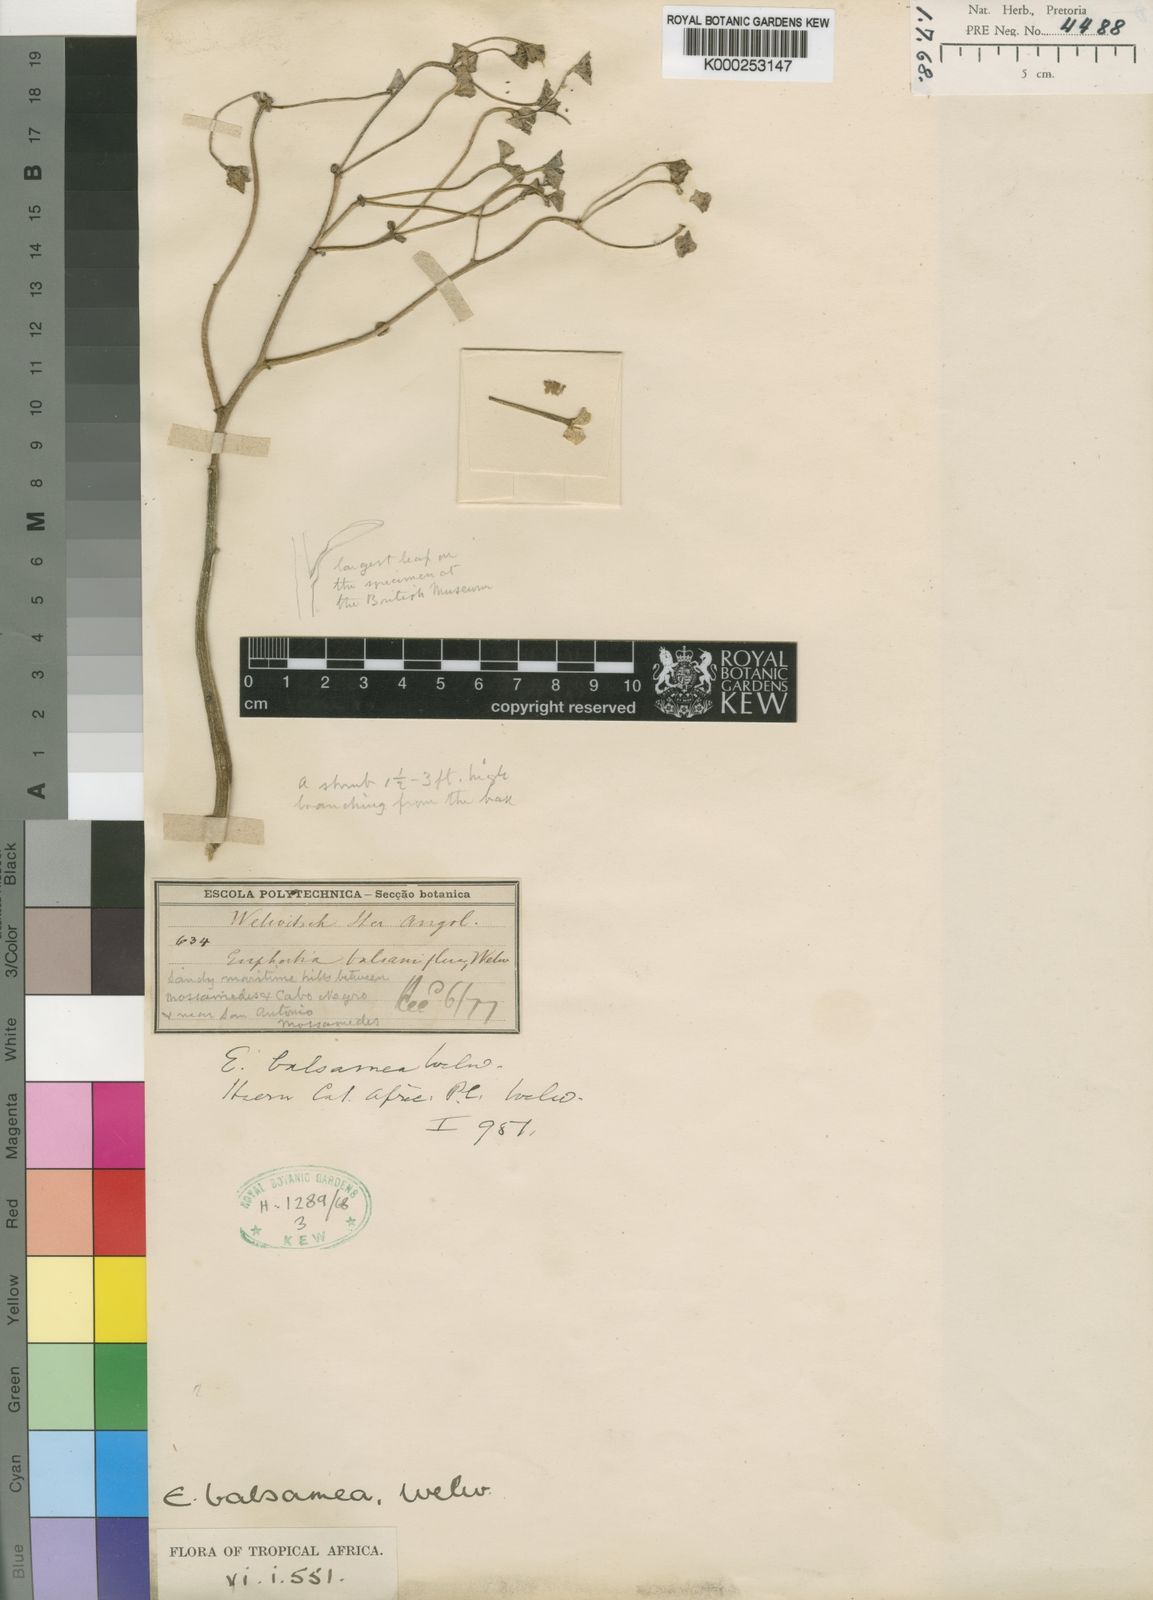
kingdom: Plantae
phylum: Tracheophyta
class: Magnoliopsida
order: Malpighiales
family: Euphorbiaceae
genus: Euphorbia
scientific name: Euphorbia gariepina
